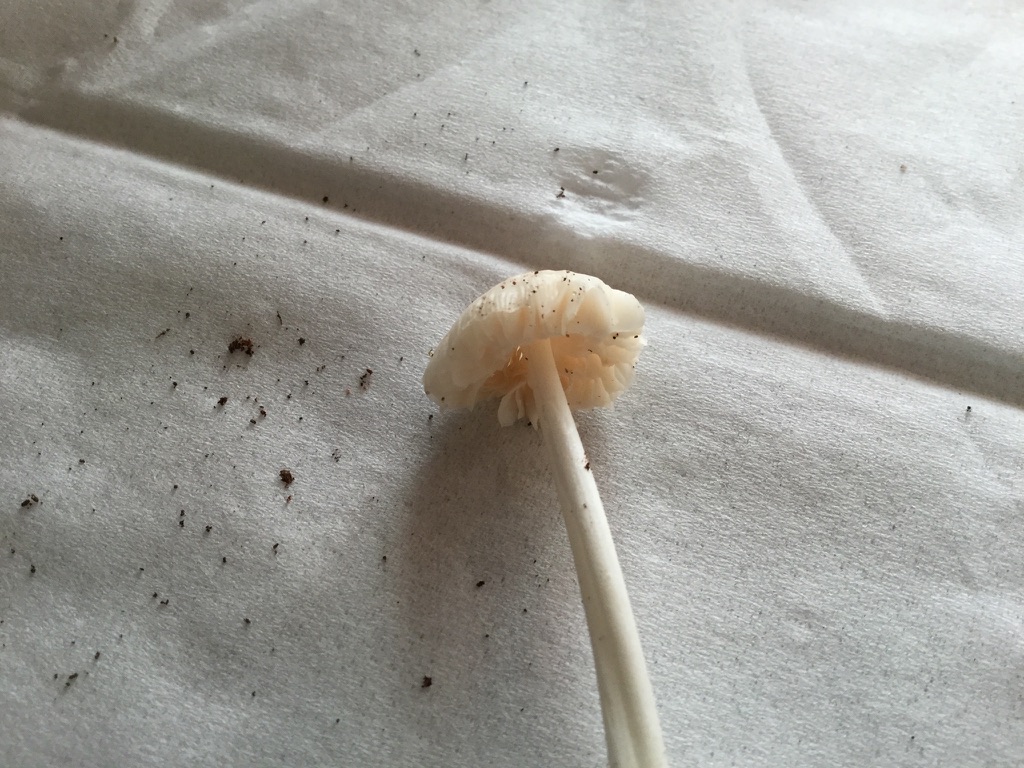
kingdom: Fungi
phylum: Basidiomycota
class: Agaricomycetes
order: Agaricales
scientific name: Agaricales
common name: champignonordenen
